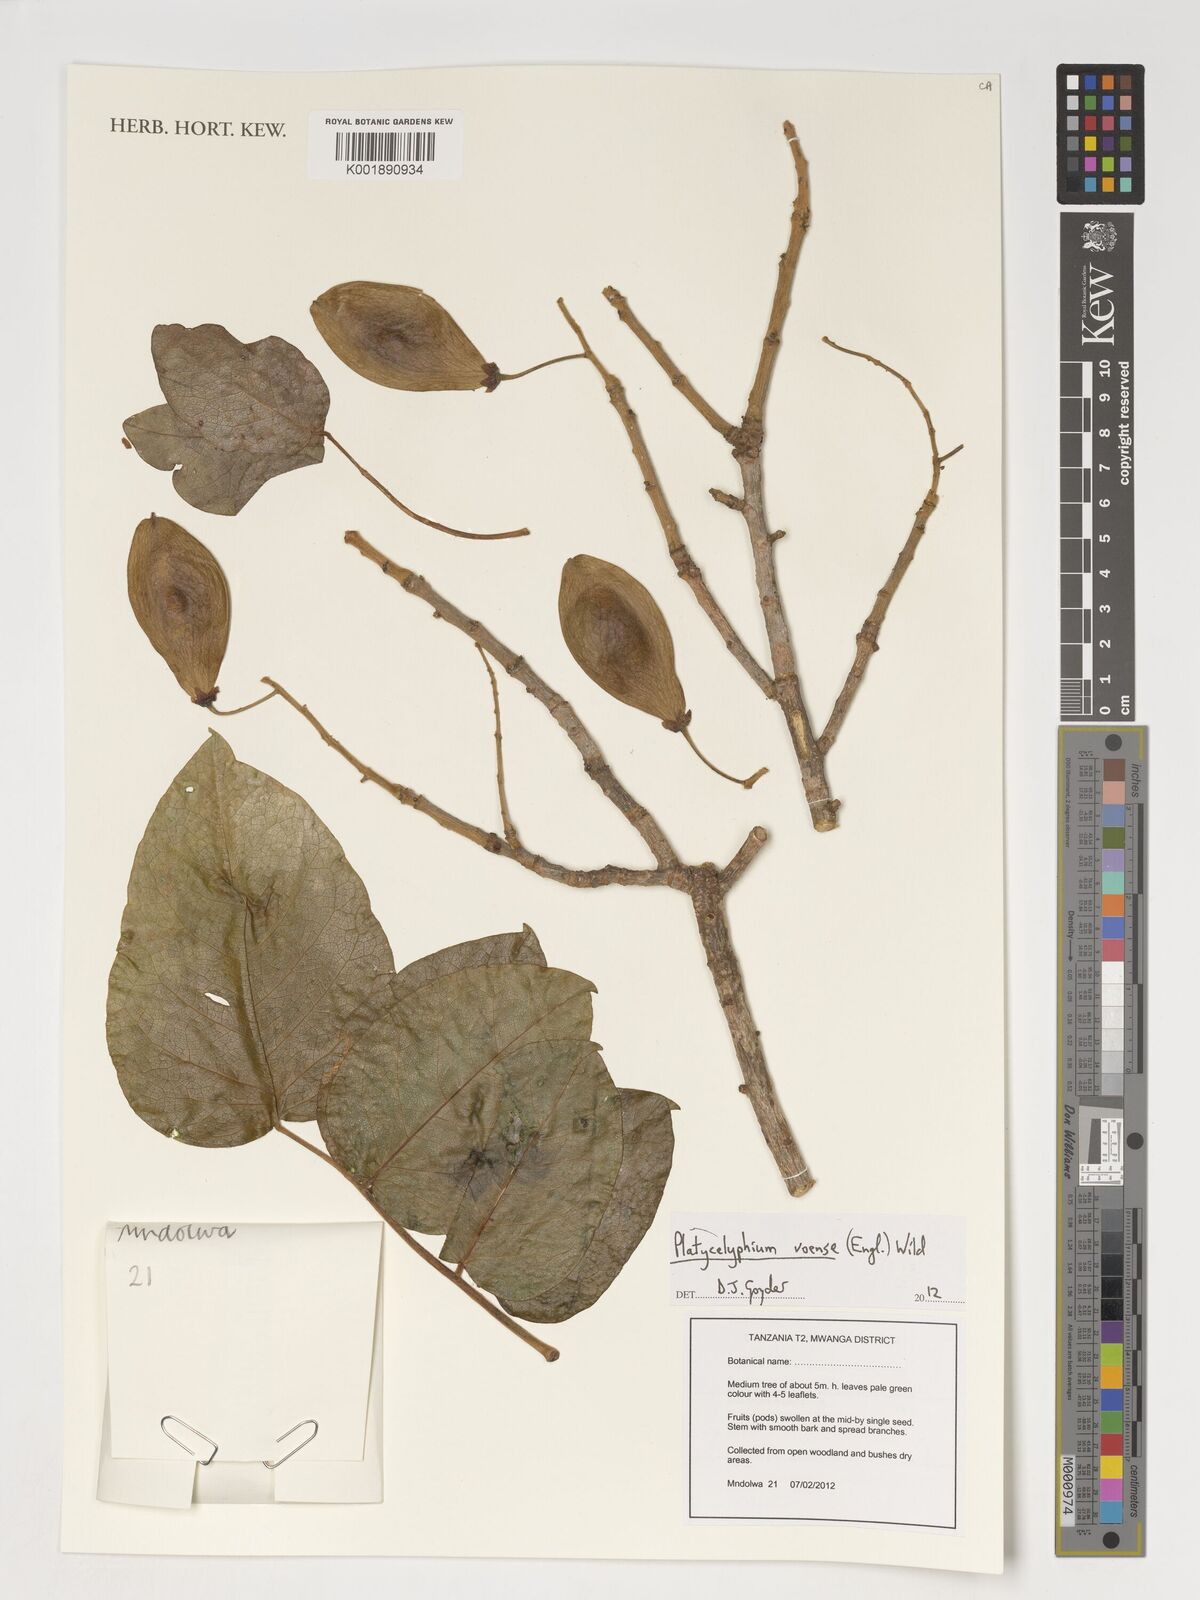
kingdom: Plantae
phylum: Tracheophyta
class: Magnoliopsida
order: Fabales
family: Fabaceae
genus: Platycelyphium
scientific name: Platycelyphium voense
